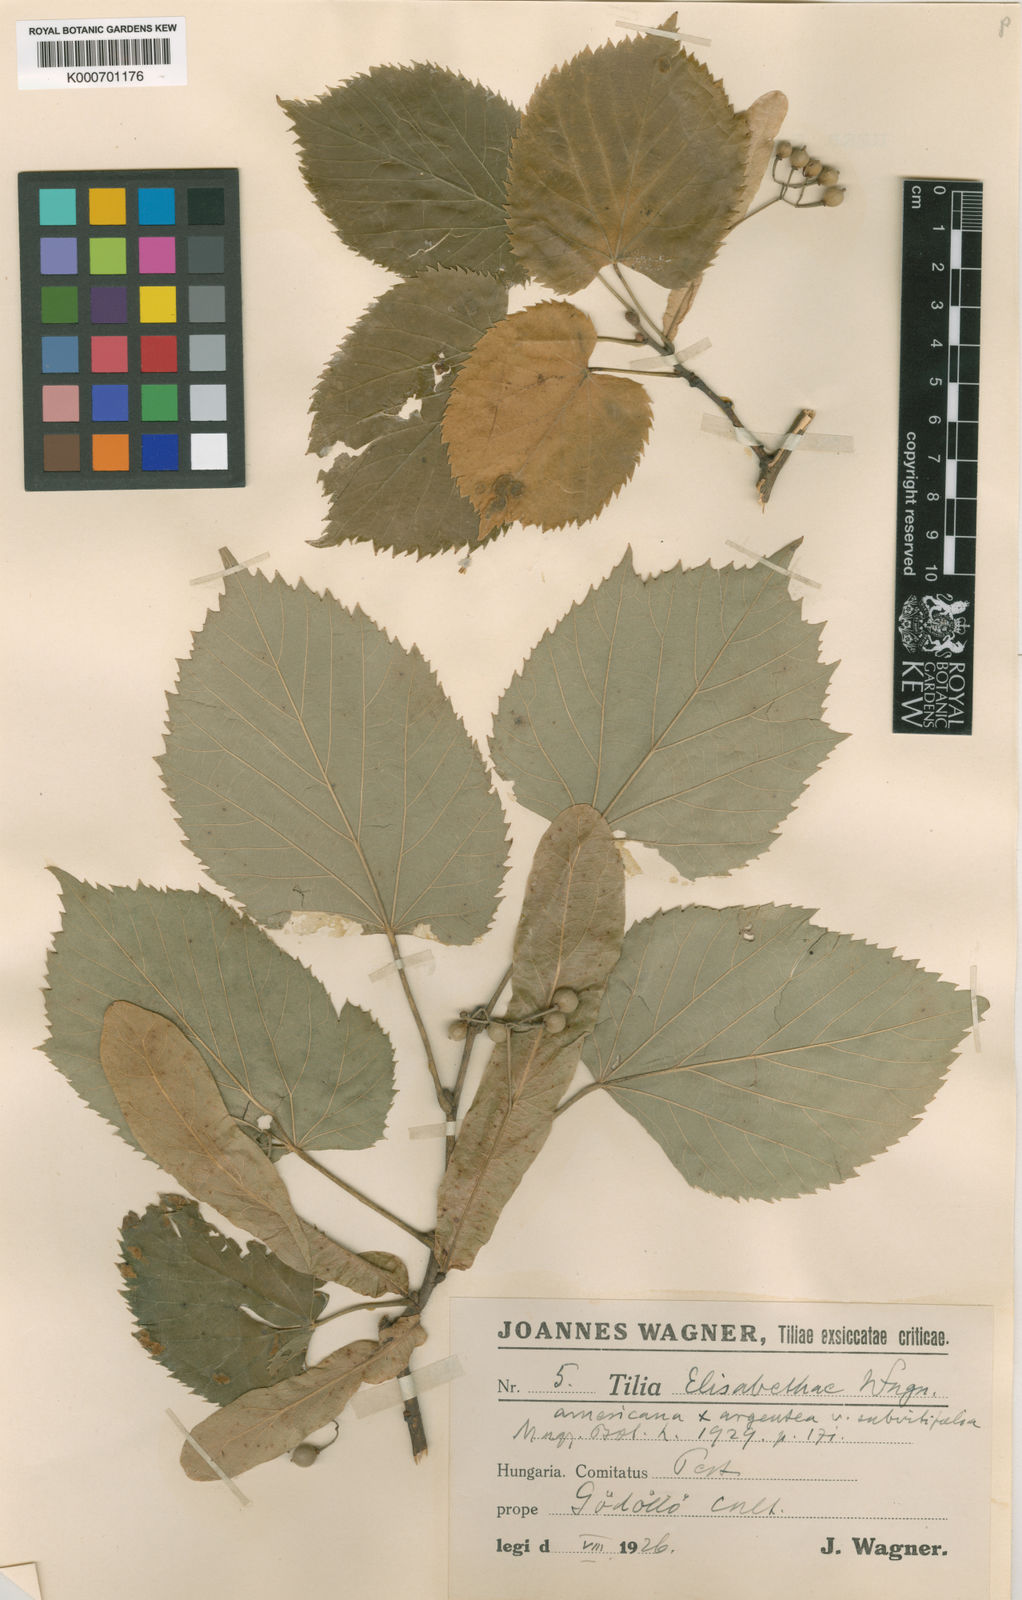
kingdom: Plantae
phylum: Tracheophyta
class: Magnoliopsida
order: Malvales
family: Malvaceae
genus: Tilia
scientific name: Tilia moltkei
